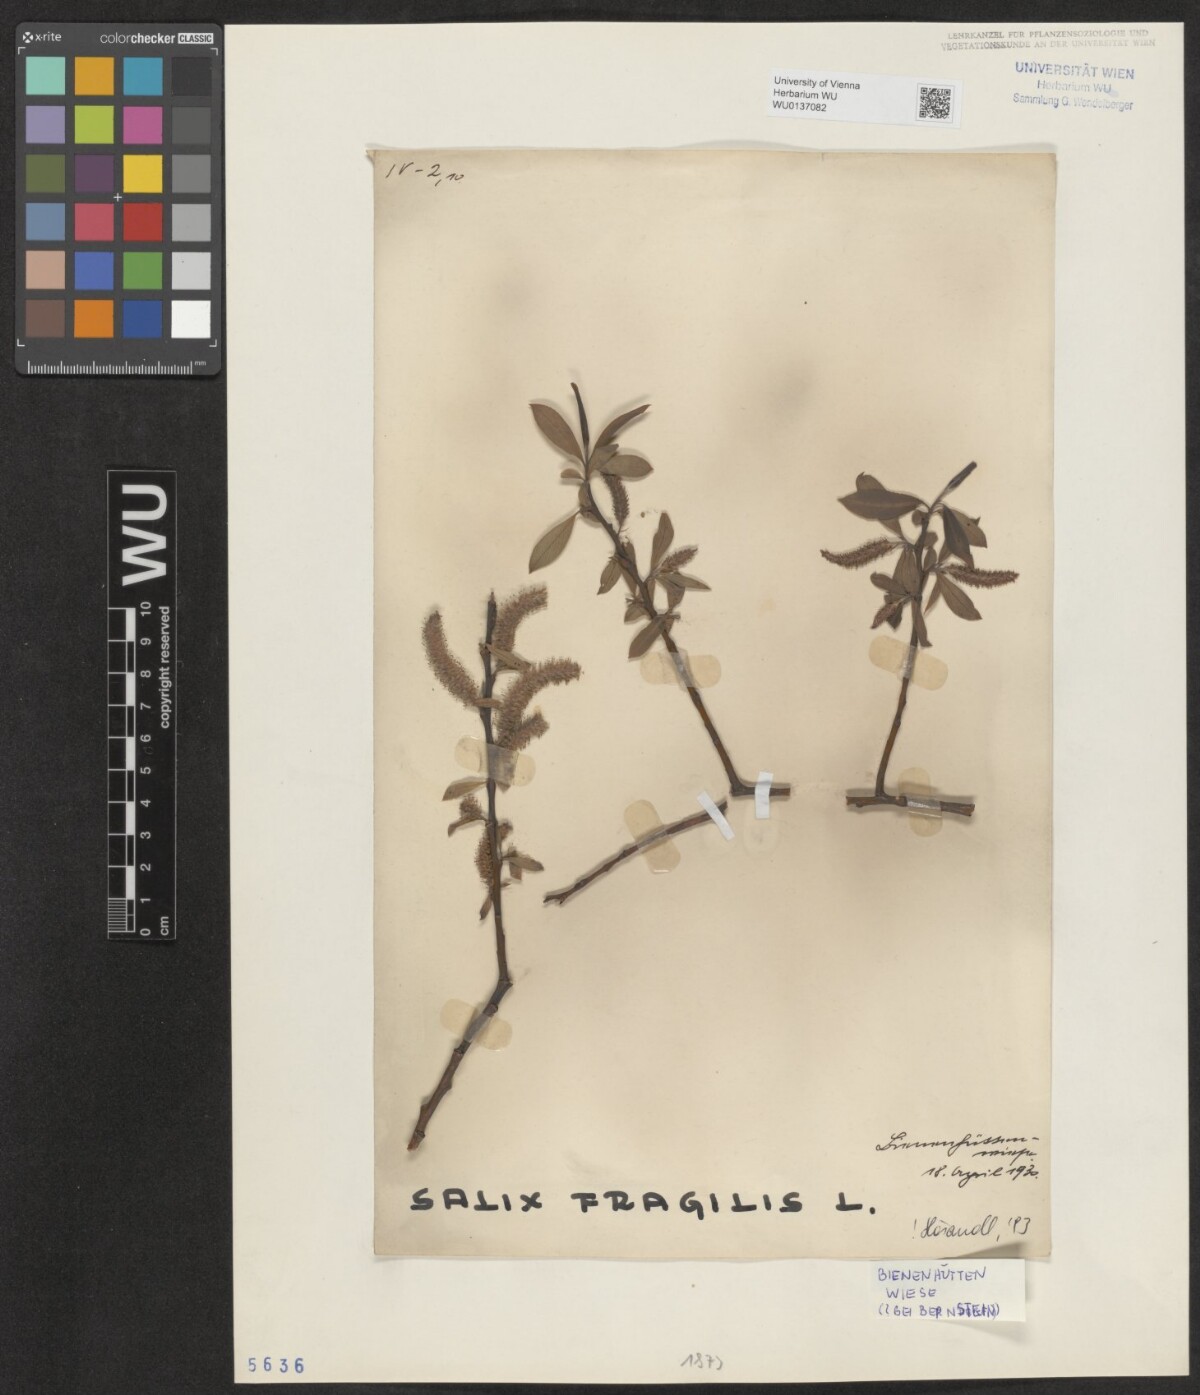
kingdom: Plantae
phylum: Tracheophyta
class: Magnoliopsida
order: Malpighiales
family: Salicaceae
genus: Salix
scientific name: Salix fragilis
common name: Crack willow
